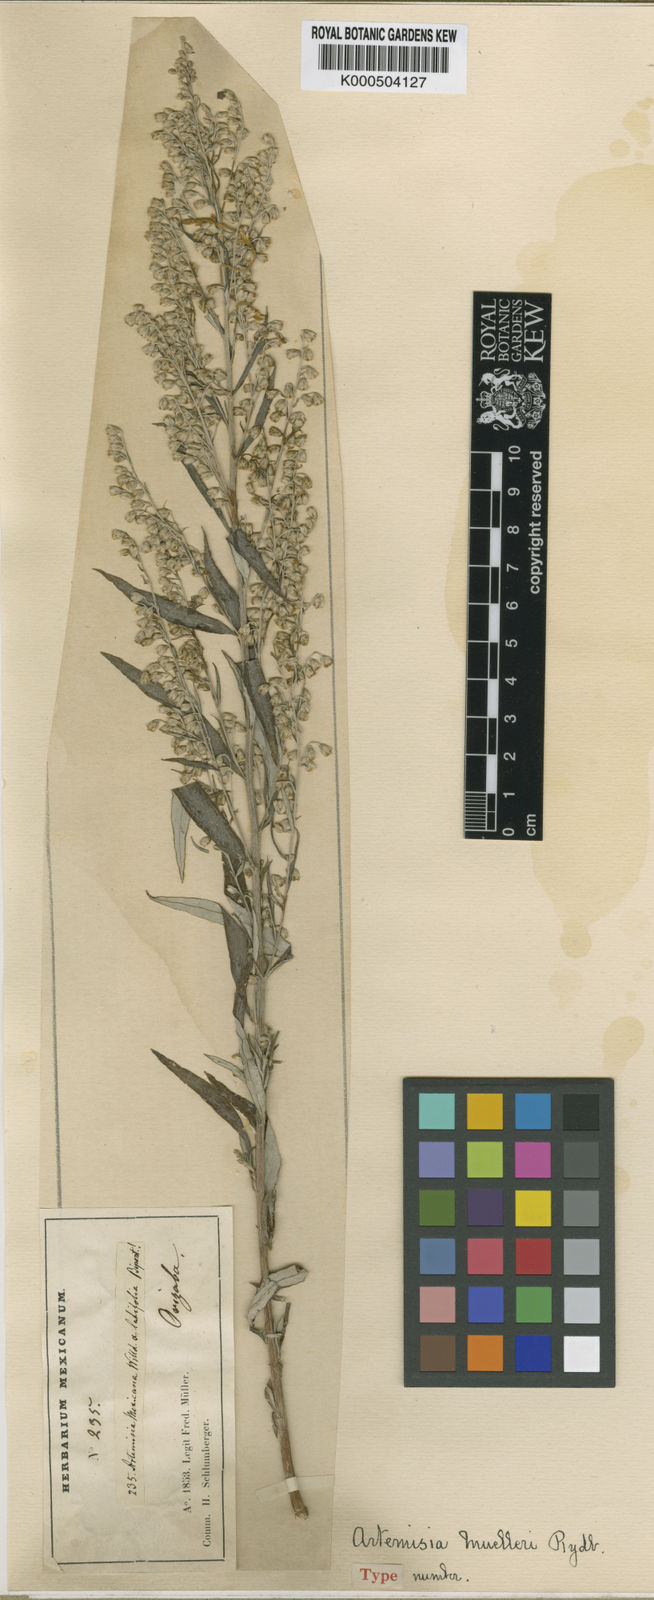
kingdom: Plantae
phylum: Tracheophyta
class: Magnoliopsida
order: Asterales
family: Asteraceae
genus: Artemisia
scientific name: Artemisia ludoviciana
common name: Western mugwort
